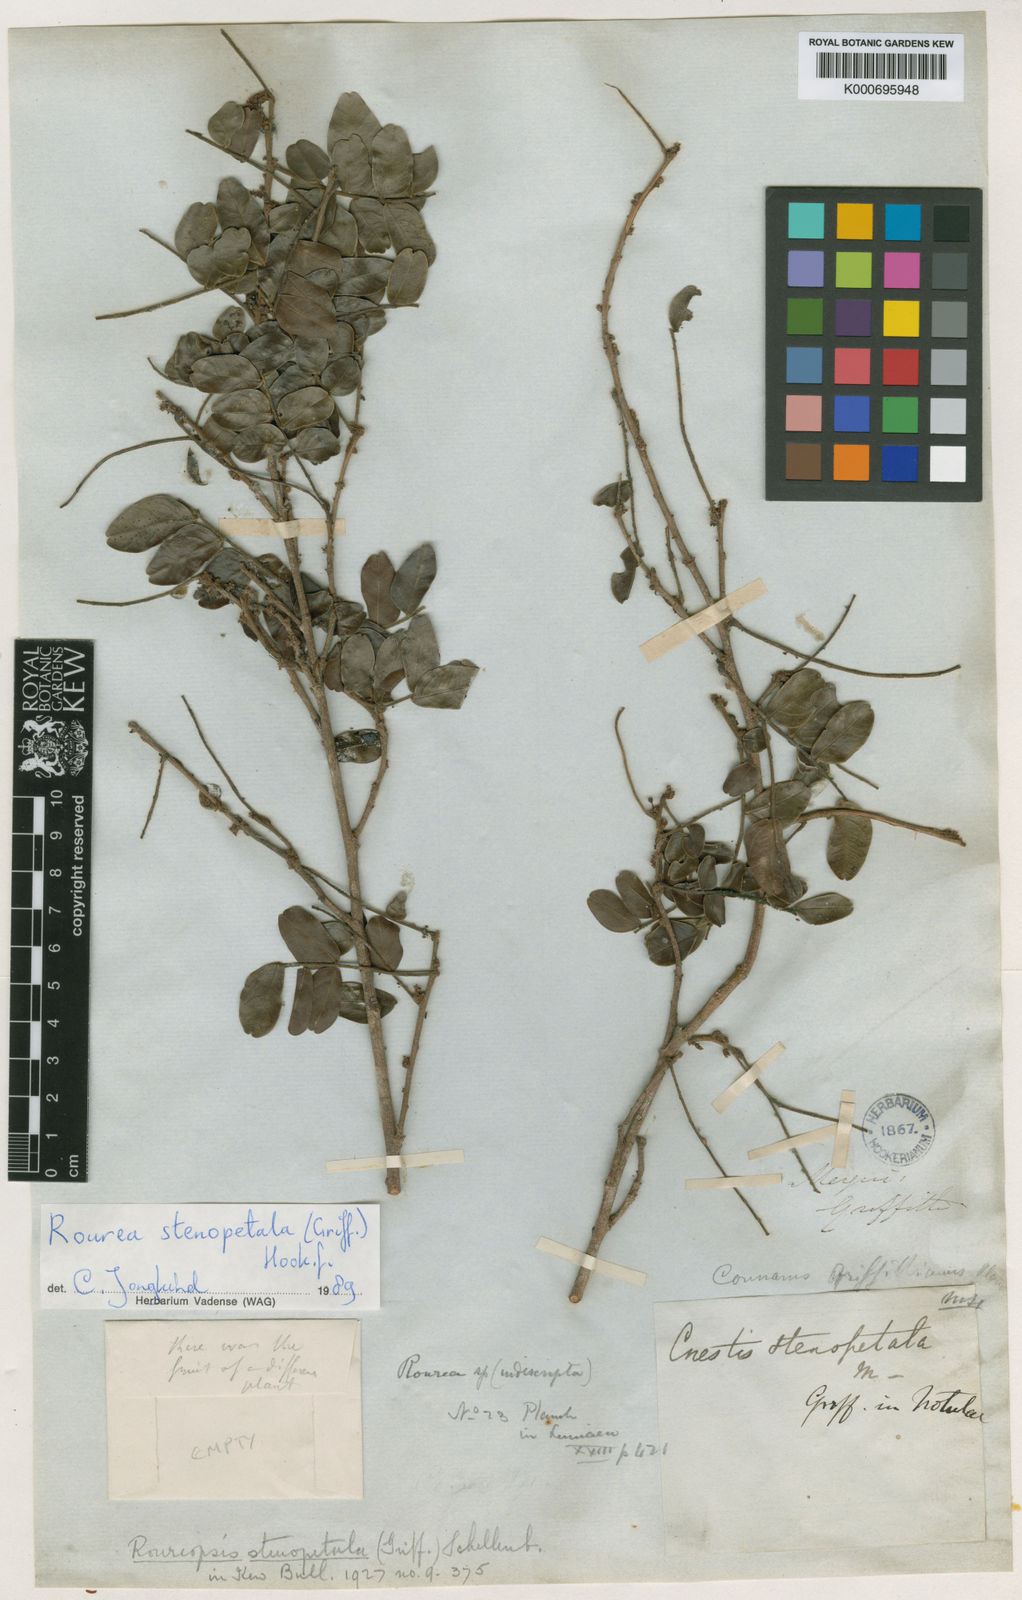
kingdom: Plantae
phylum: Tracheophyta
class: Magnoliopsida
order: Oxalidales
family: Connaraceae
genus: Rourea
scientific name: Rourea stenopetala
